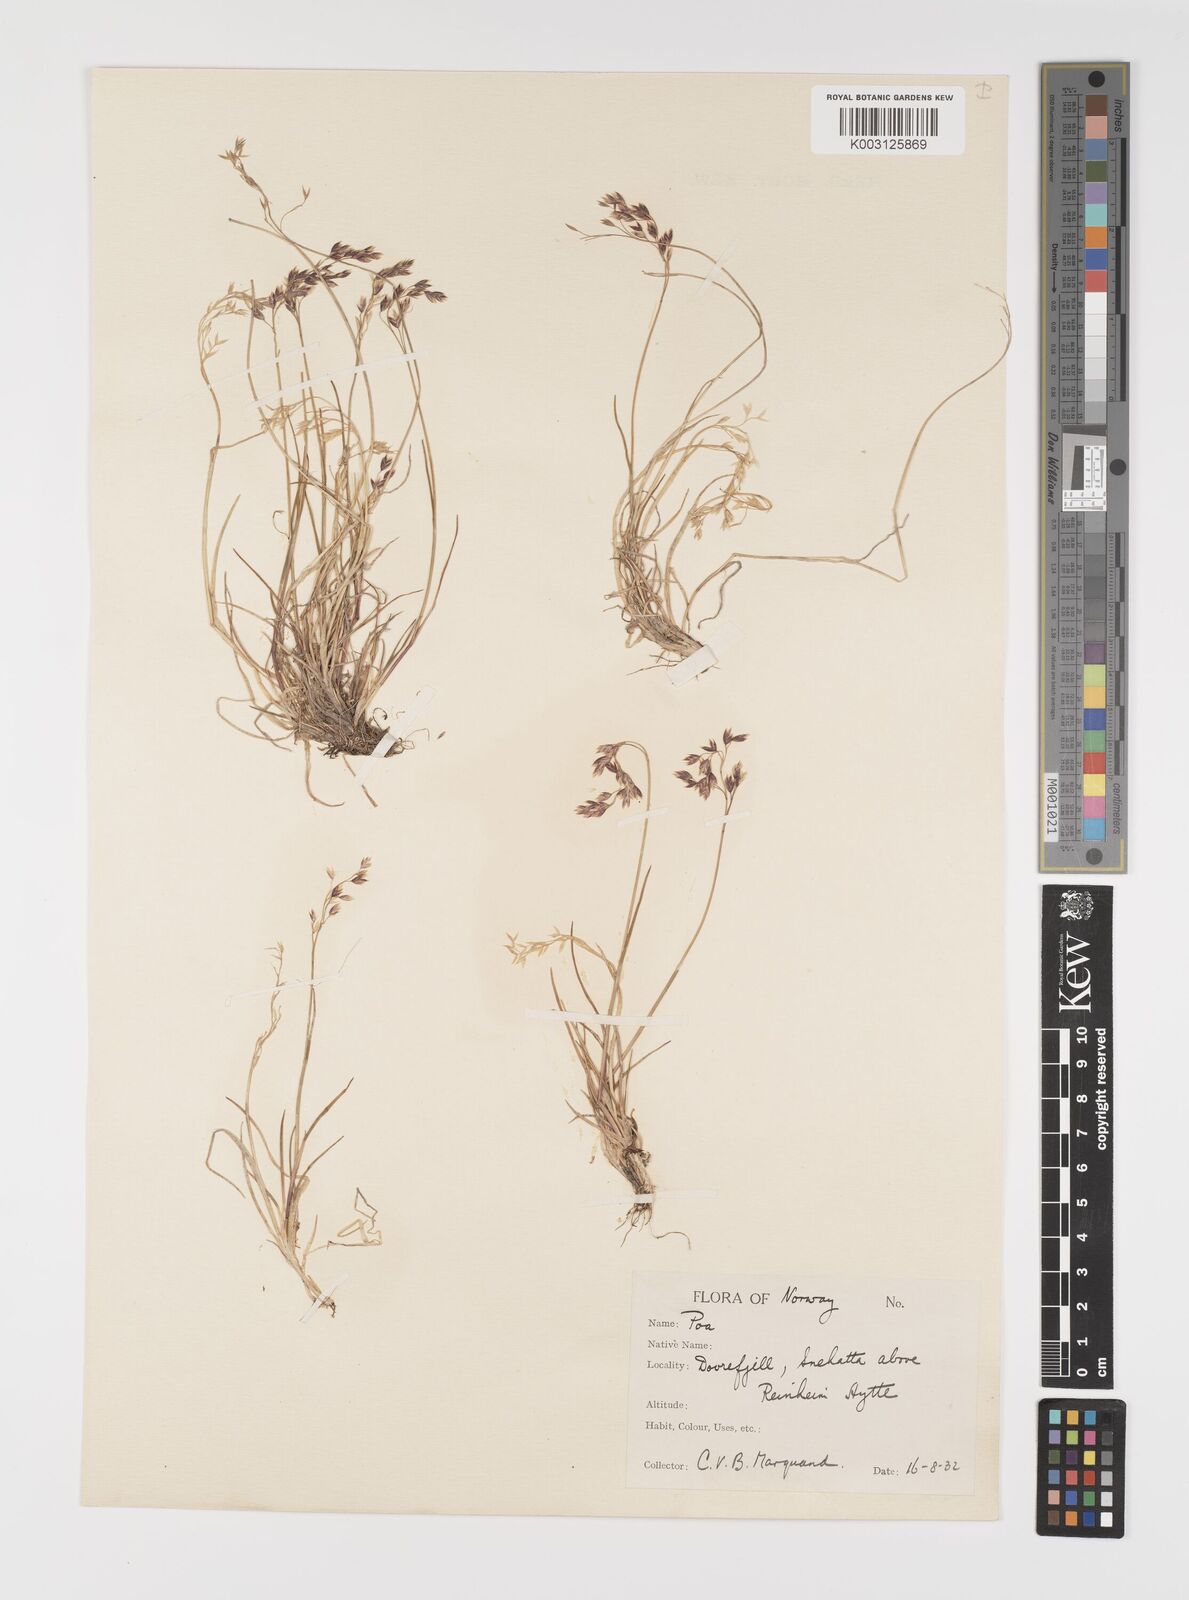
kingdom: Plantae
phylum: Tracheophyta
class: Liliopsida
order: Poales
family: Poaceae
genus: Eragrostis
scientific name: Eragrostis cilianensis
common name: Stinkgrass
